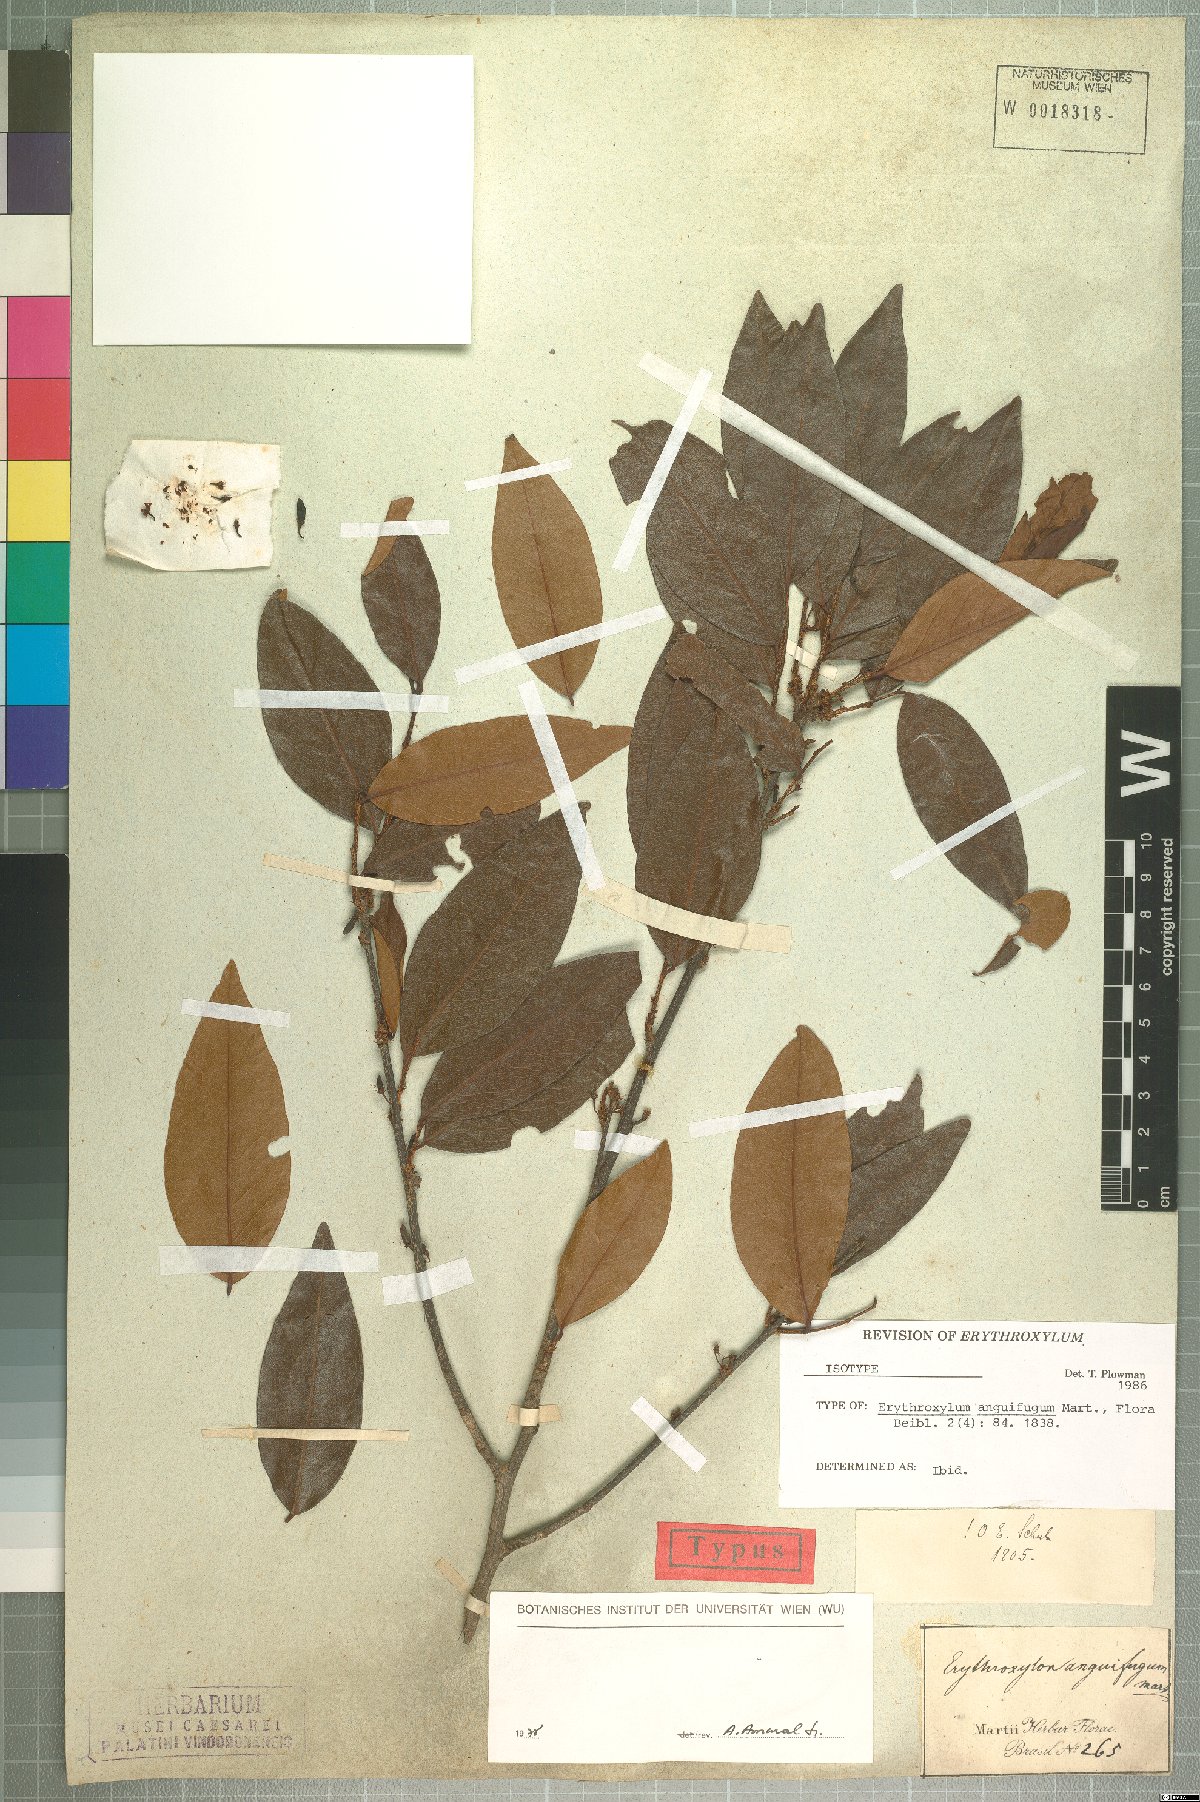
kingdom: Plantae
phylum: Tracheophyta
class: Magnoliopsida
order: Malpighiales
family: Erythroxylaceae
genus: Erythroxylum
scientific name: Erythroxylum anguifugum
